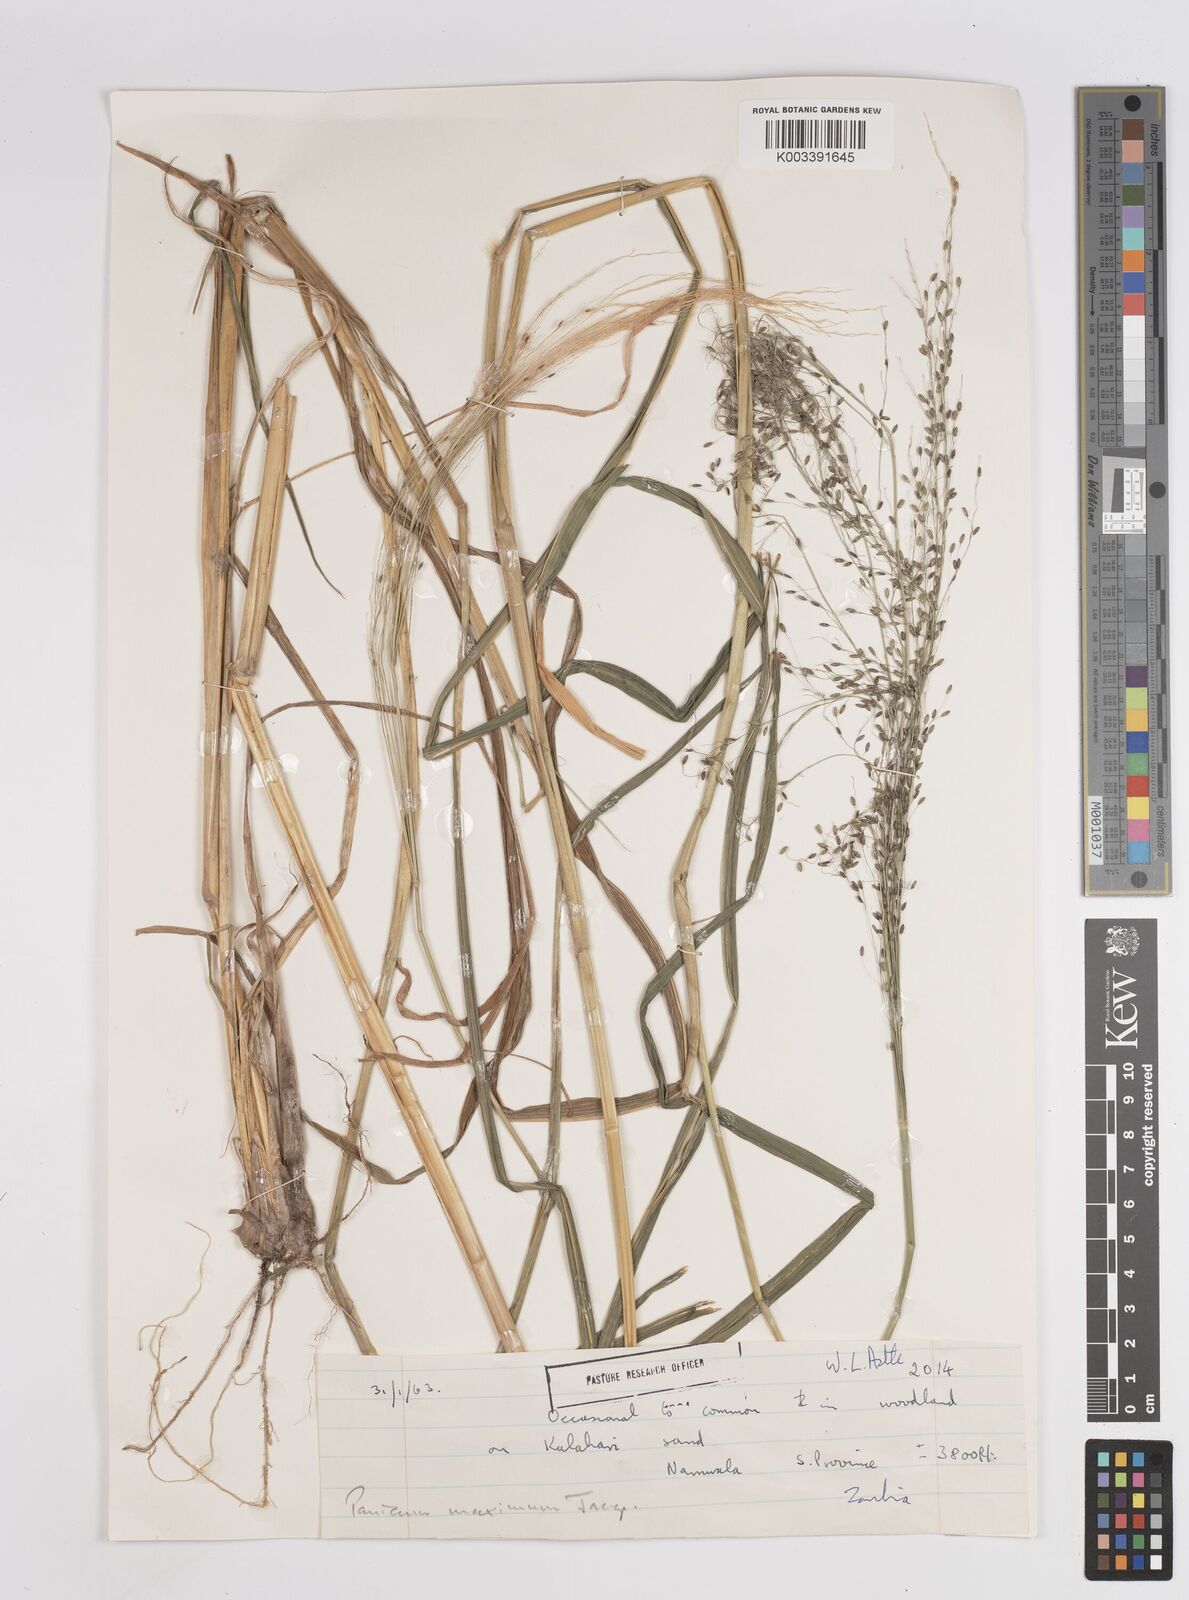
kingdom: Plantae
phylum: Tracheophyta
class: Liliopsida
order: Poales
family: Poaceae
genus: Megathyrsus
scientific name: Megathyrsus maximus
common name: Guineagrass
